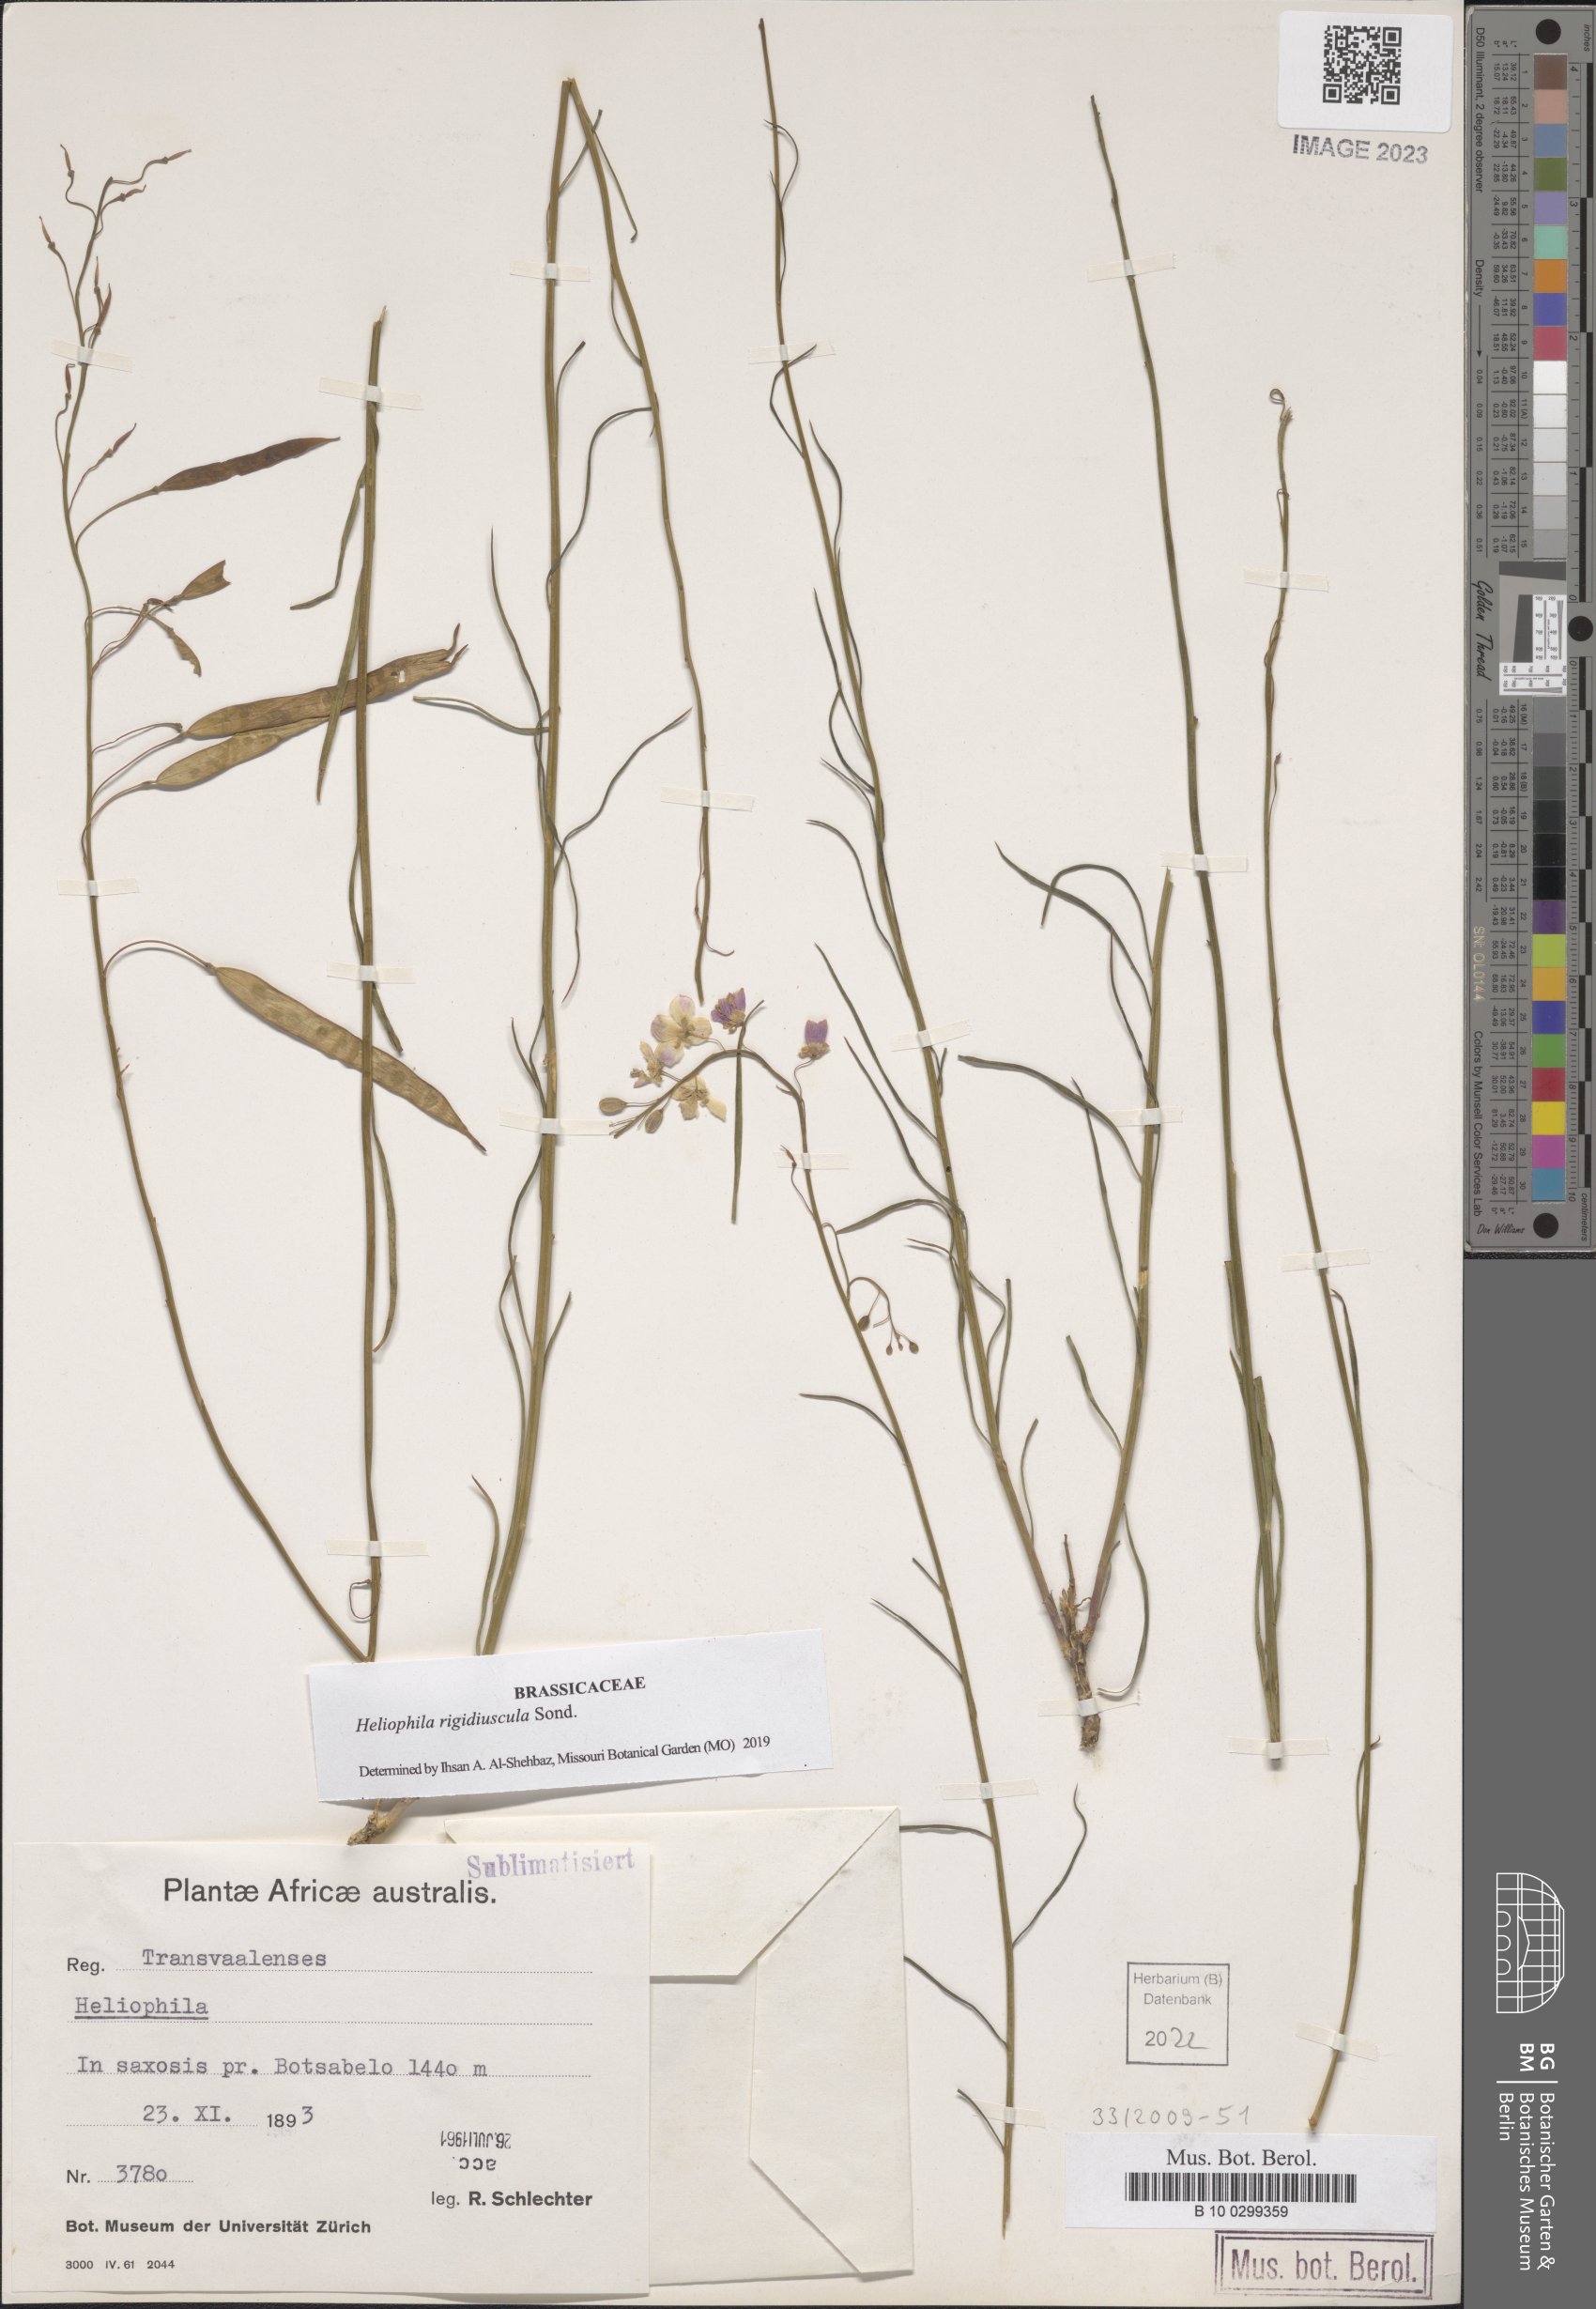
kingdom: Plantae
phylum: Tracheophyta
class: Magnoliopsida
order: Brassicales
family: Brassicaceae
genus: Heliophila
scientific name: Heliophila rigidiuscula
